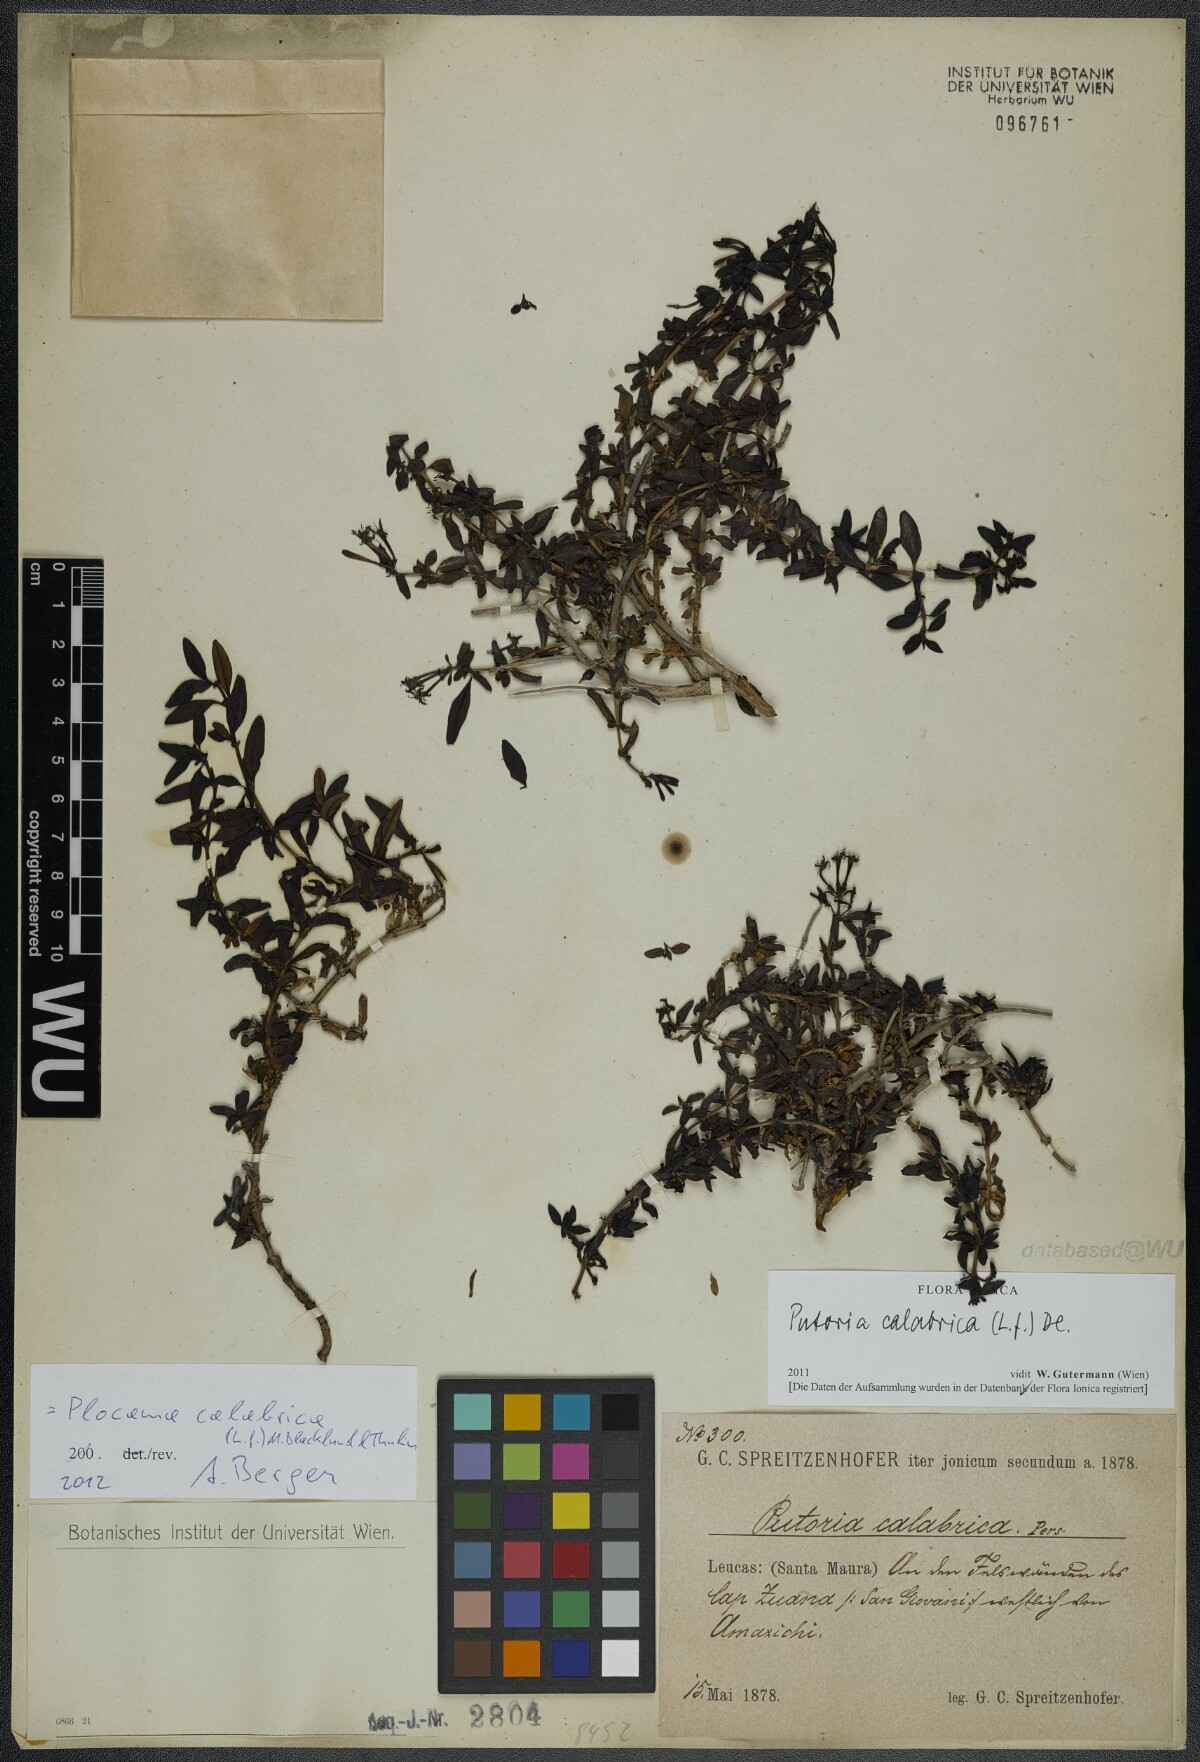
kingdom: Plantae
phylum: Tracheophyta
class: Magnoliopsida
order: Gentianales
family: Rubiaceae
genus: Plocama
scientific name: Plocama calabrica
